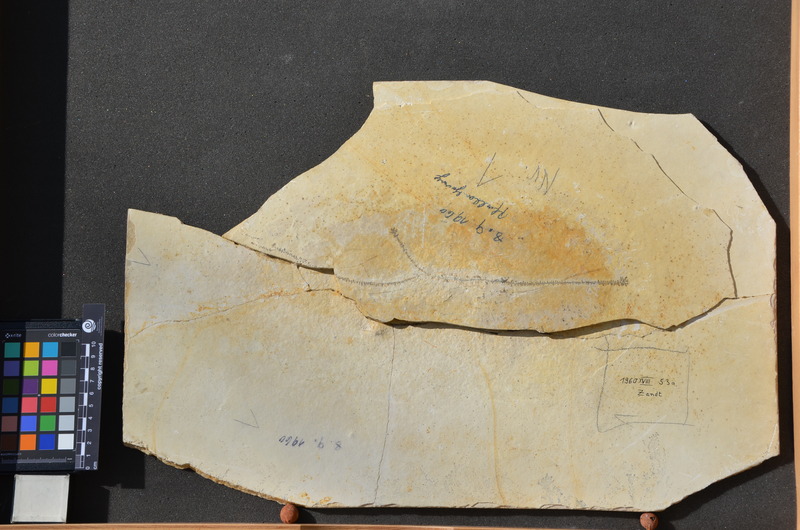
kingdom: Animalia
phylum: Chordata
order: Amiiformes
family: Ionoscopidae
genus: Ionoscopus
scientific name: Ionoscopus desori
